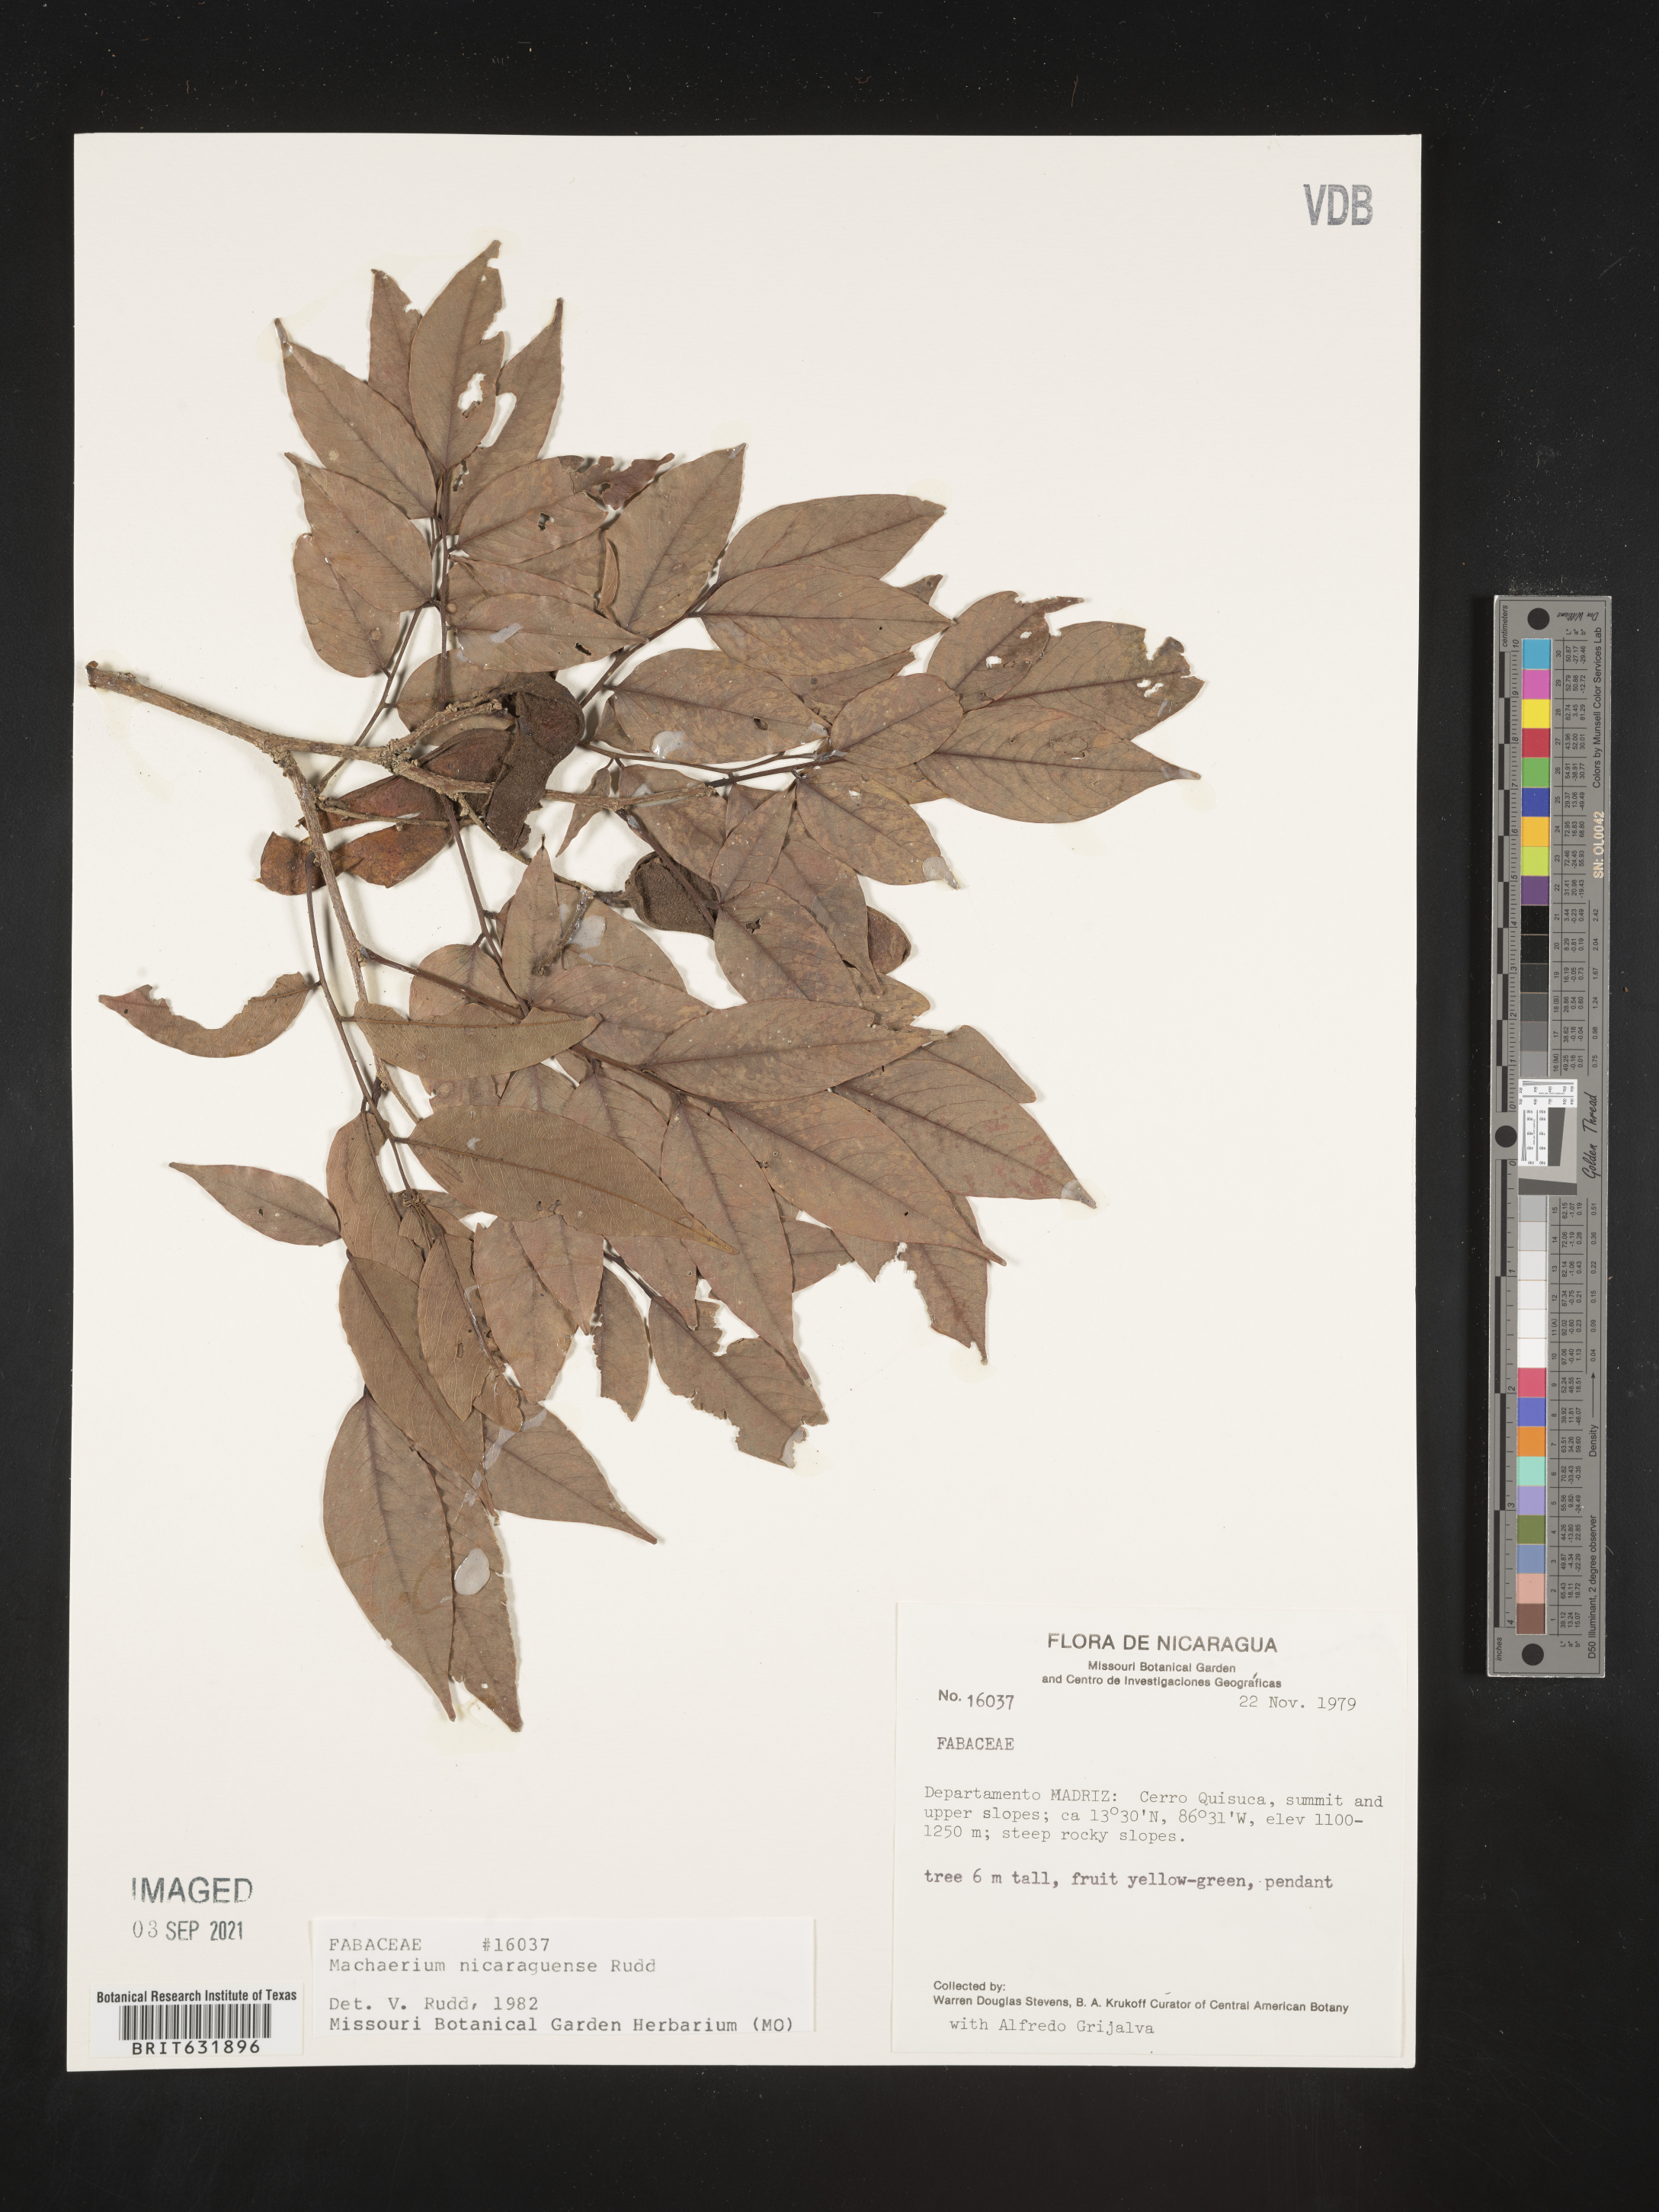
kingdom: Plantae
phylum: Tracheophyta
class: Magnoliopsida
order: Fabales
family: Fabaceae
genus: Machaerium
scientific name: Machaerium
